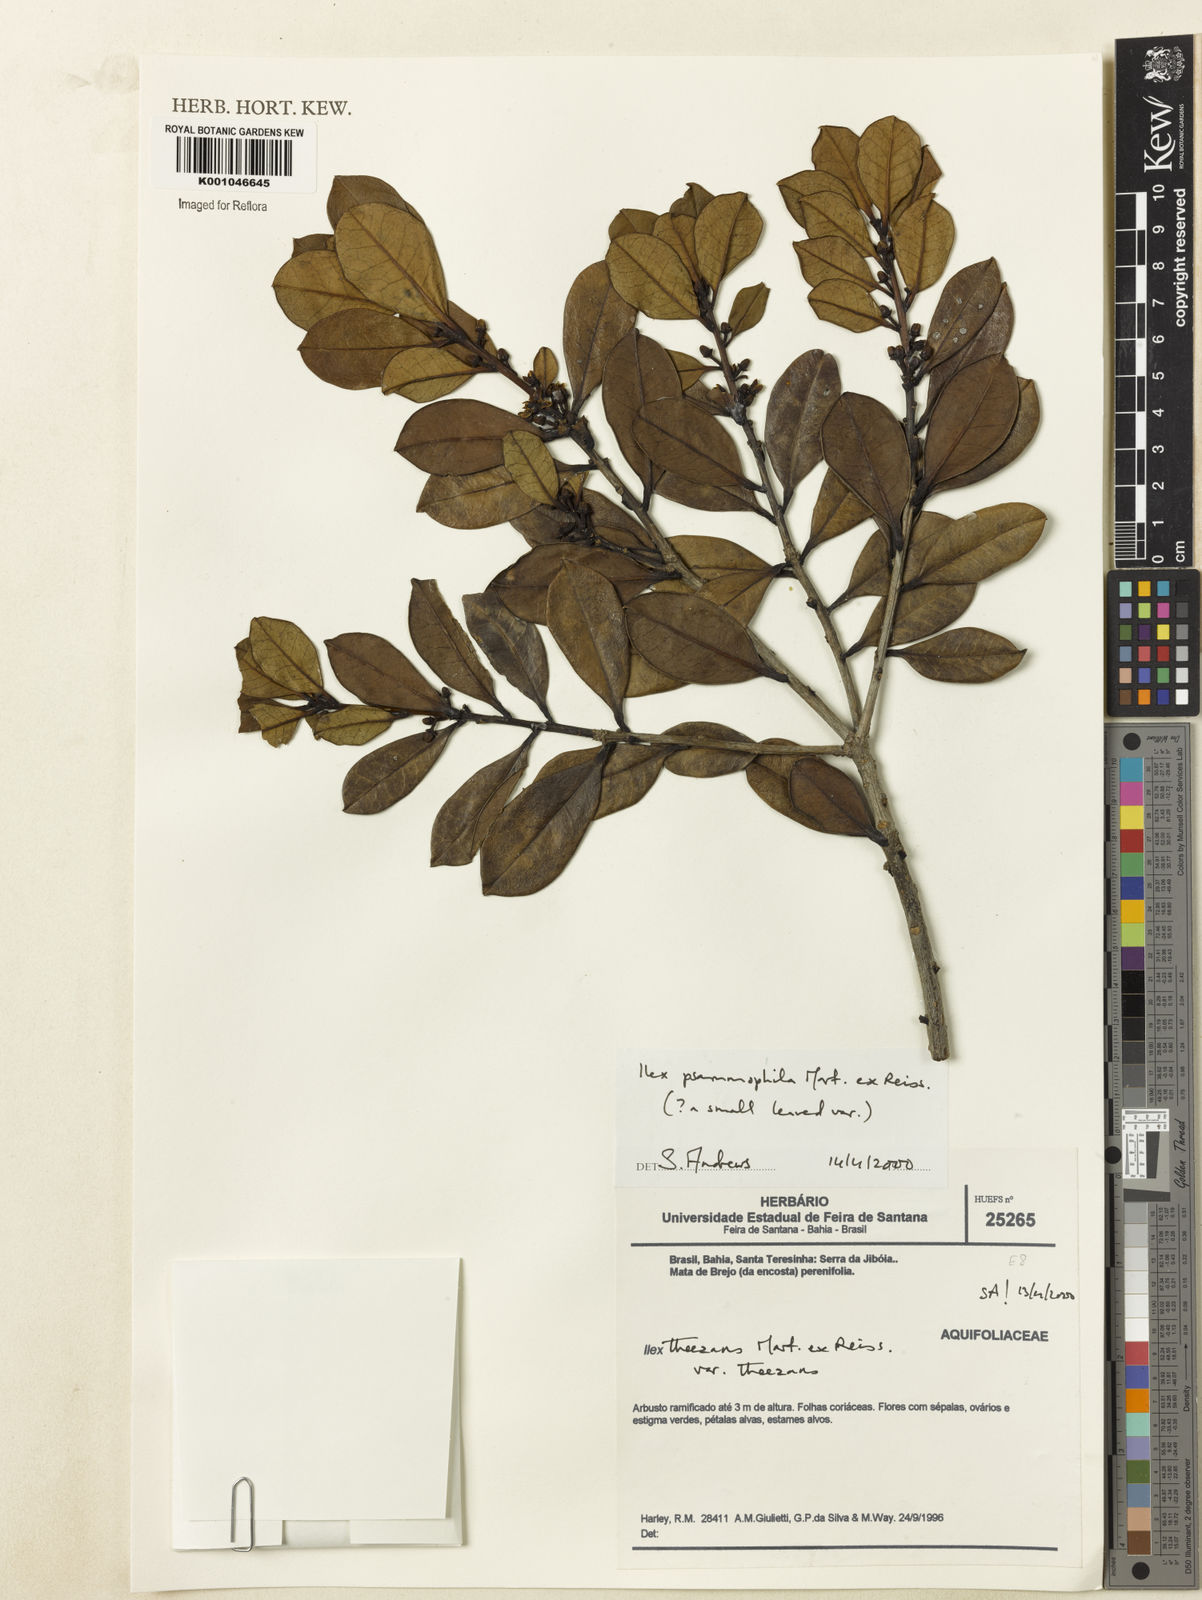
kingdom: Plantae
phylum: Tracheophyta
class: Magnoliopsida
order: Aquifoliales
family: Aquifoliaceae
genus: Ilex
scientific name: Ilex psammophila
